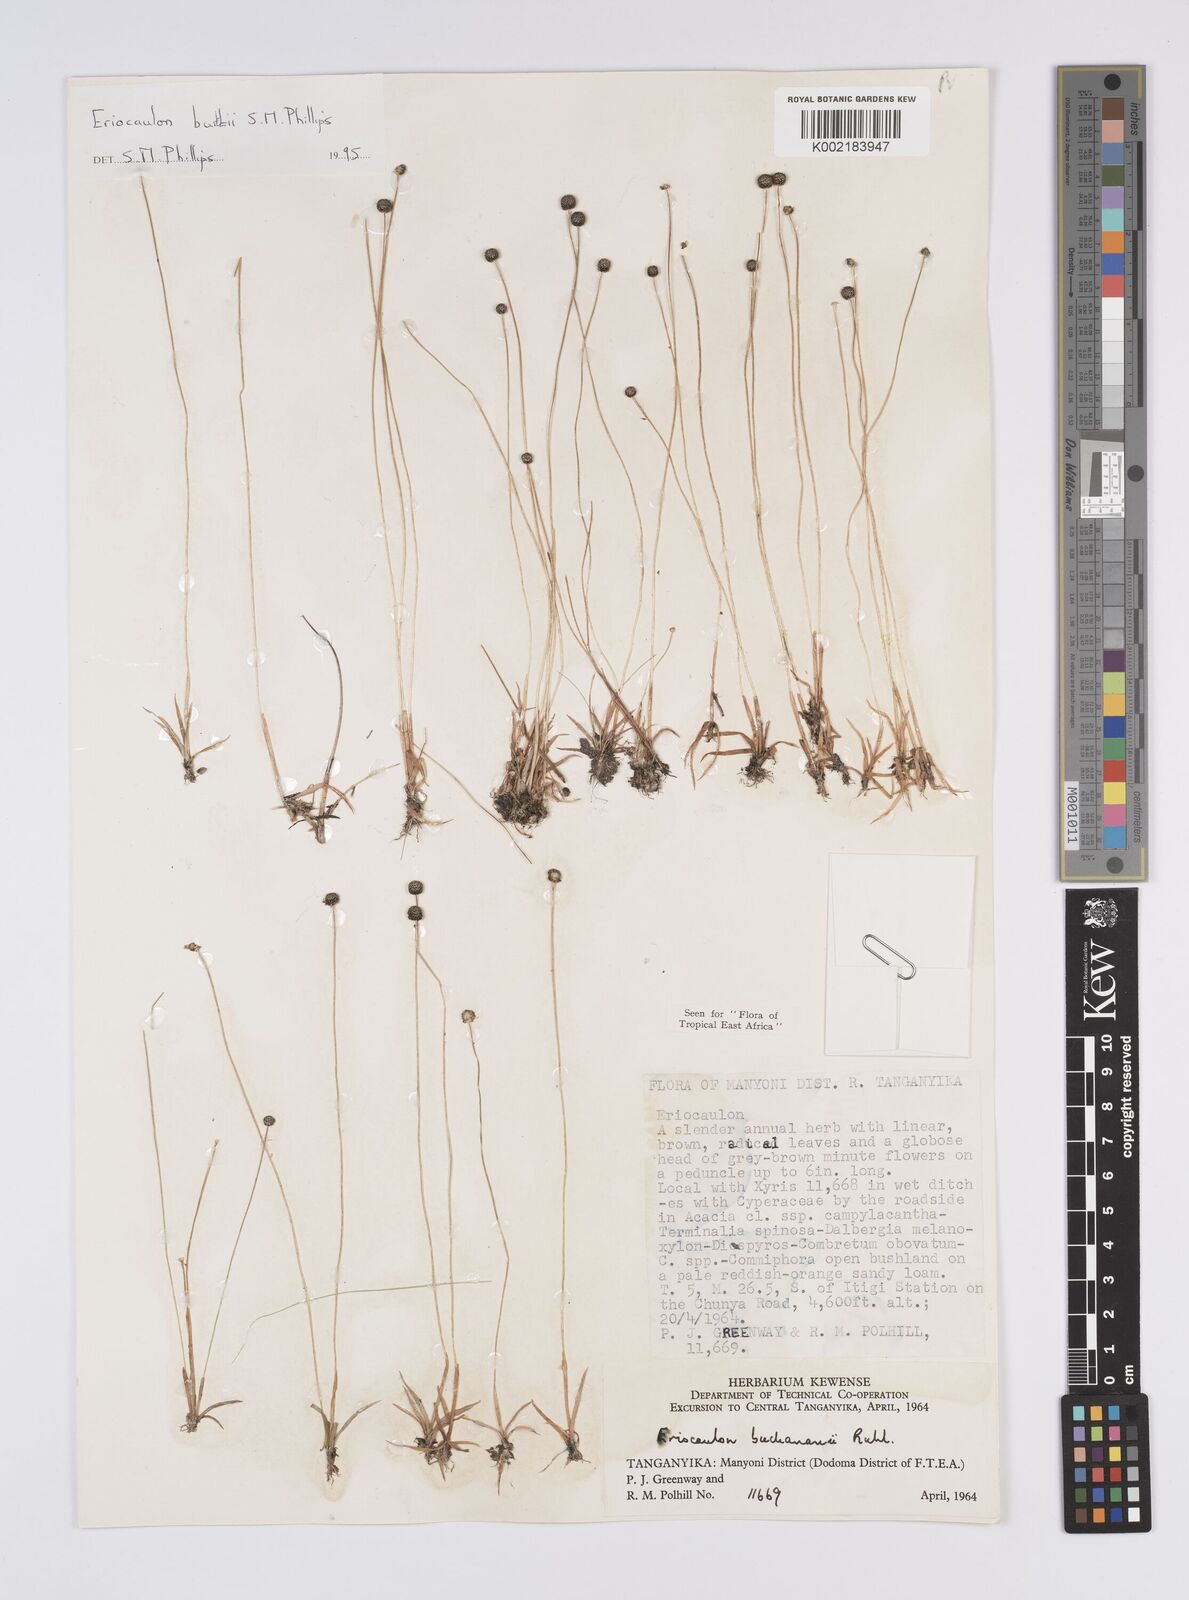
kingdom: Plantae
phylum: Tracheophyta
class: Liliopsida
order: Poales
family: Eriocaulaceae
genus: Eriocaulon
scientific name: Eriocaulon burttii
